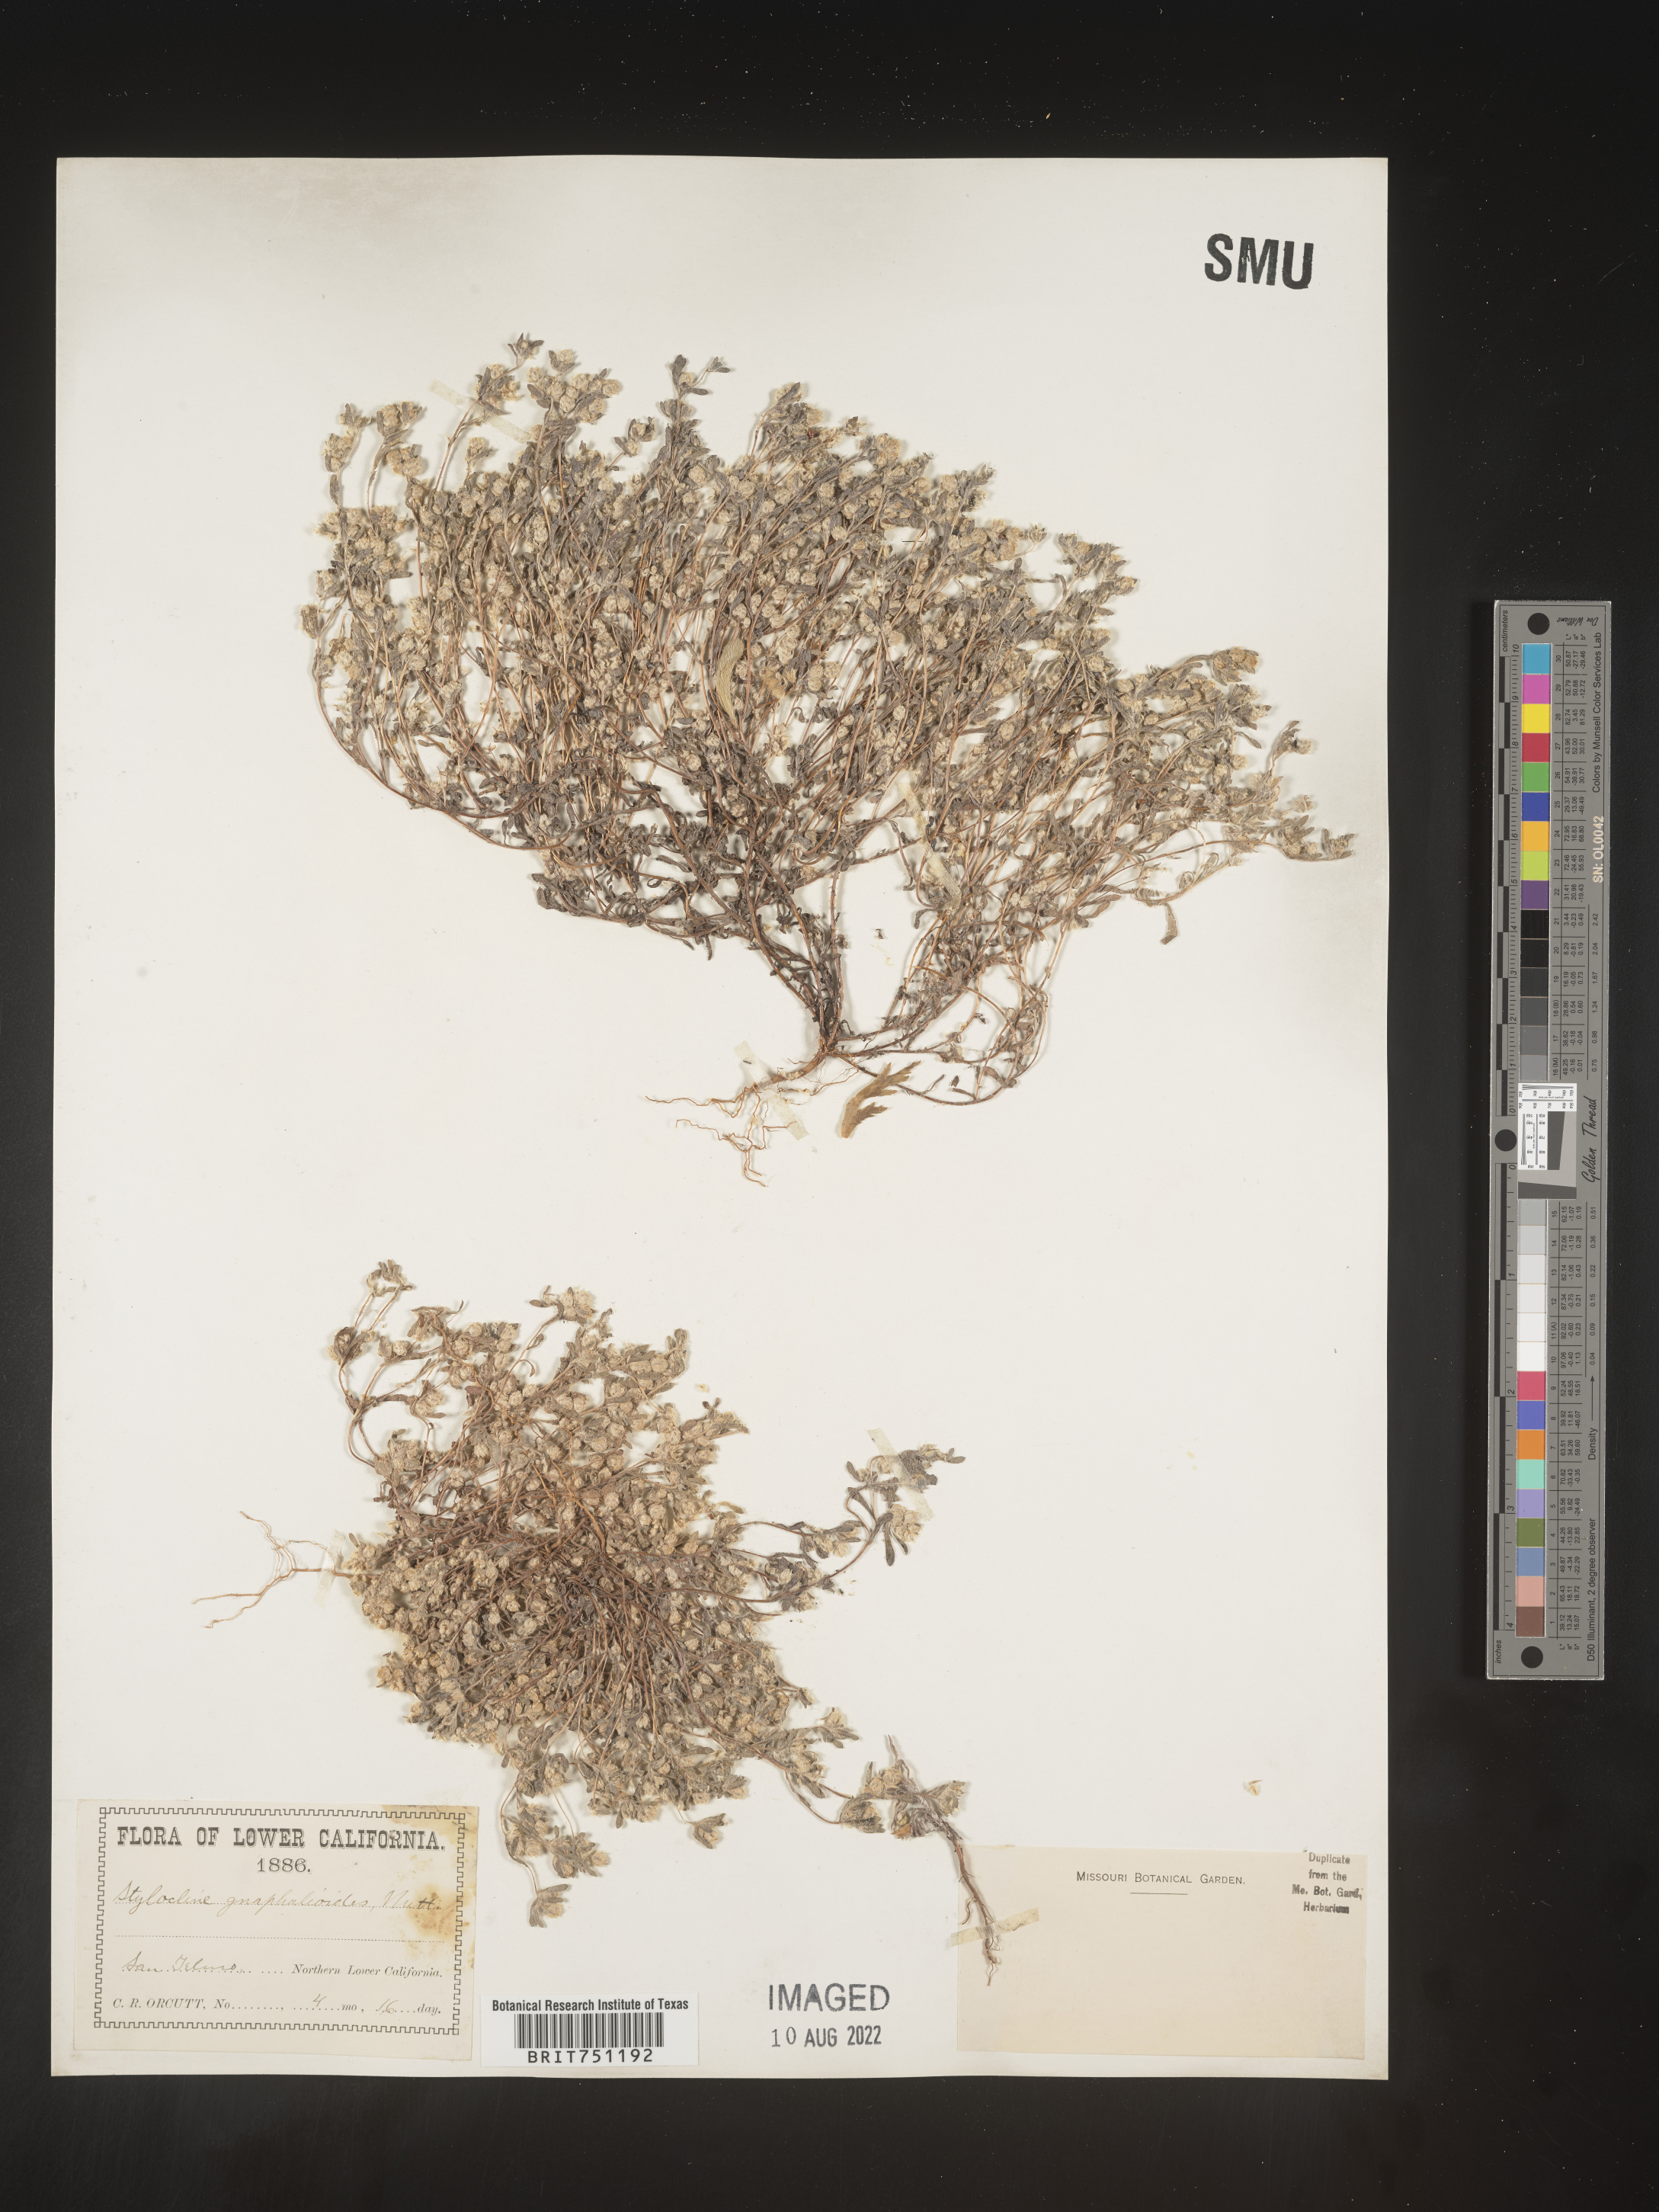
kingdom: Plantae
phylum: Tracheophyta
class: Magnoliopsida
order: Asterales
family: Asteraceae
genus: Stylocline
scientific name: Stylocline
